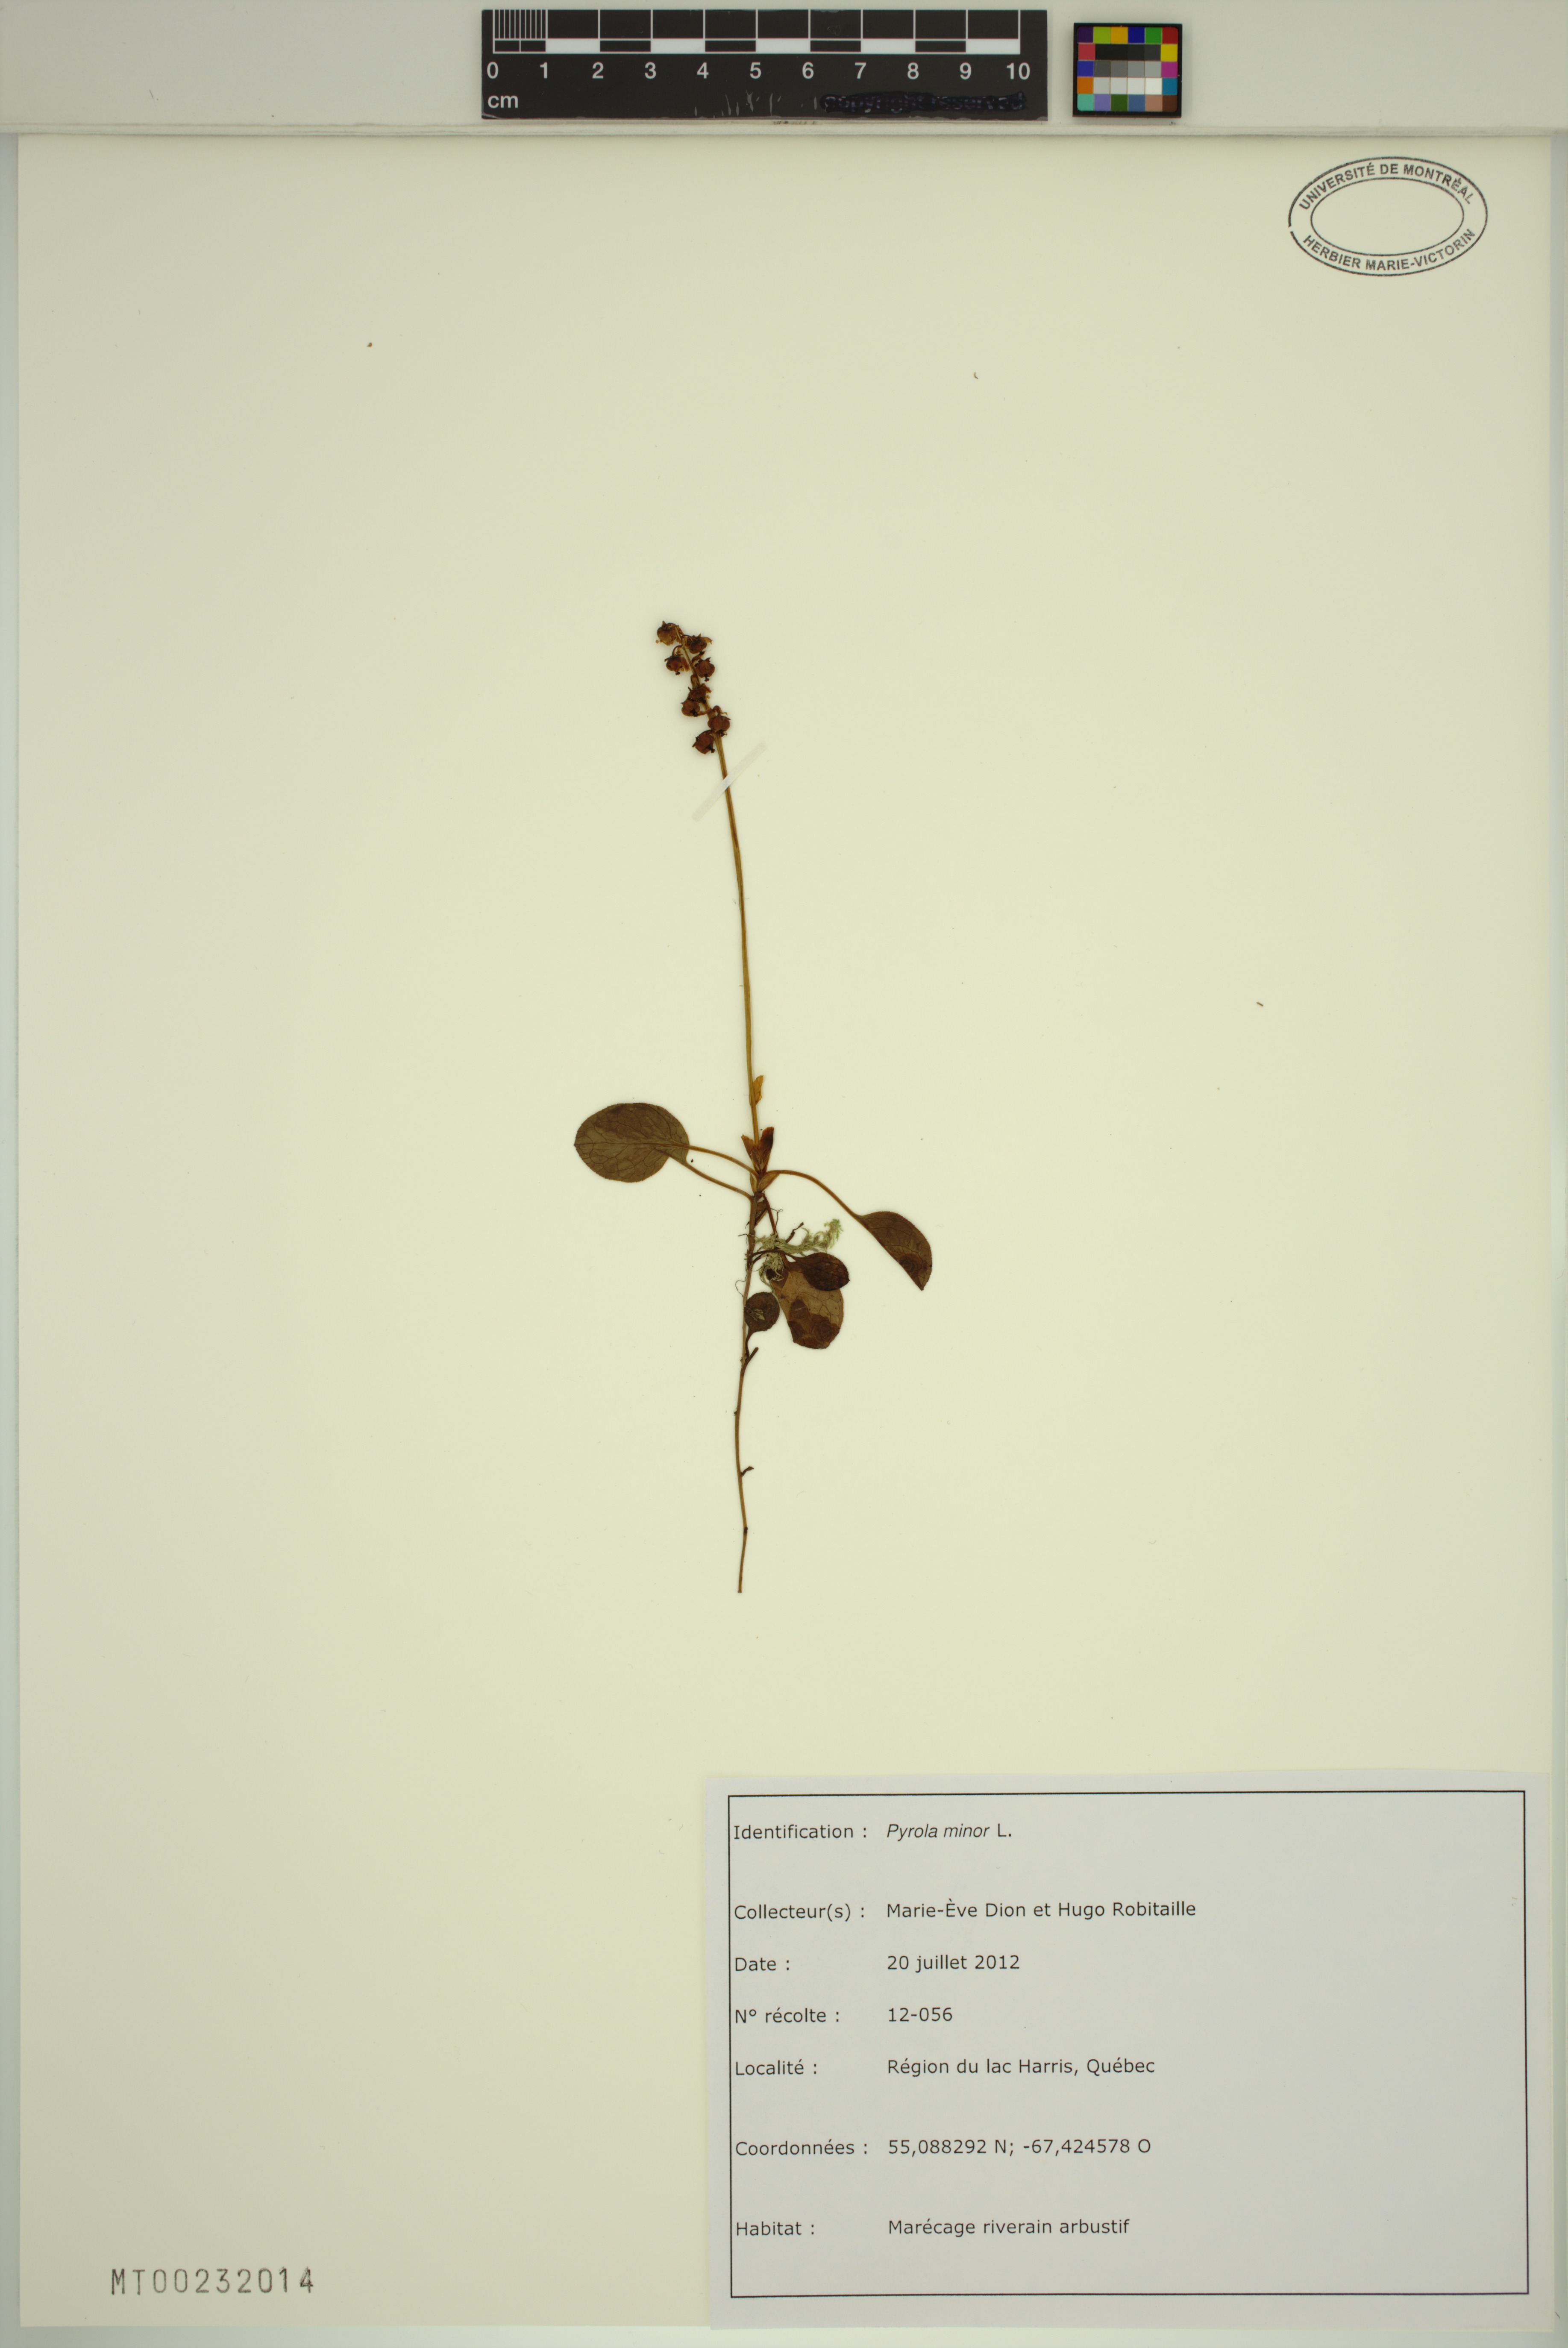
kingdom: Plantae
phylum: Tracheophyta
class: Magnoliopsida
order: Ericales
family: Ericaceae
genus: Pyrola
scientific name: Pyrola minor
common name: Common wintergreen
